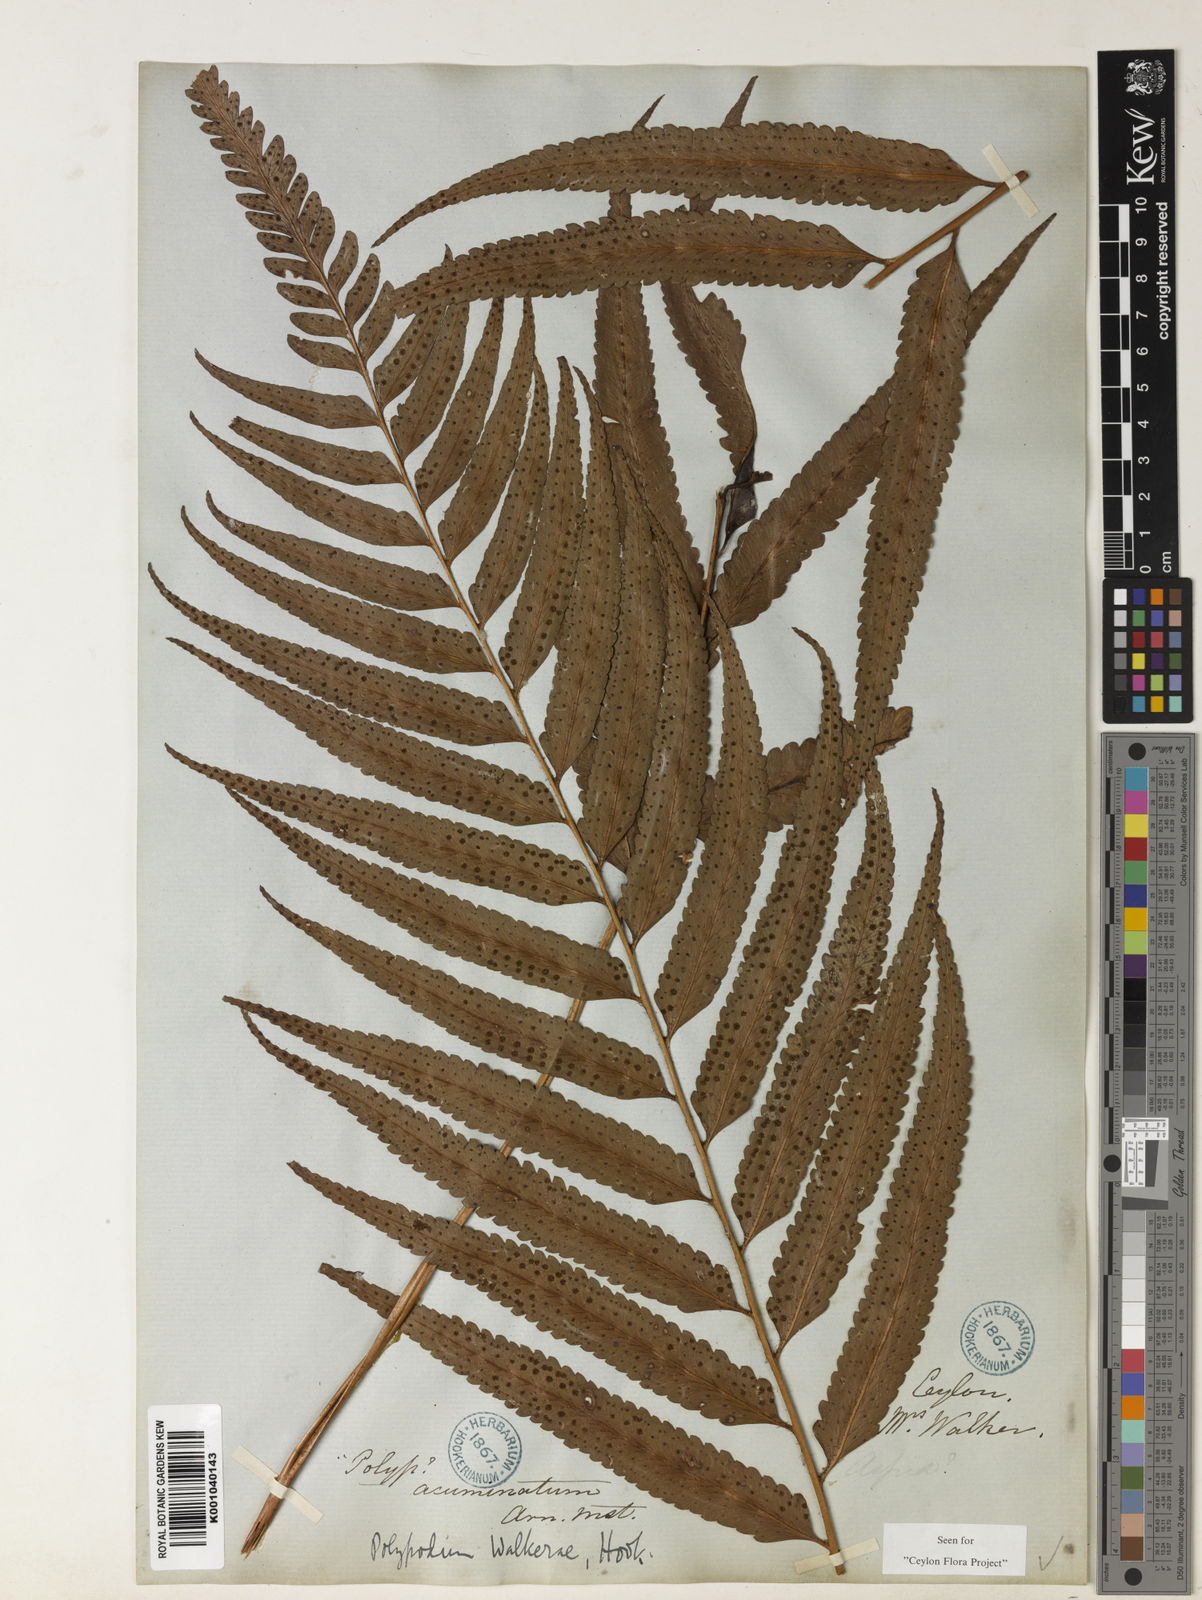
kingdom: Plantae
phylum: Tracheophyta
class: Polypodiopsida
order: Polypodiales
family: Dryopteridaceae
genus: Polystichum
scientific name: Polystichum walkerae
